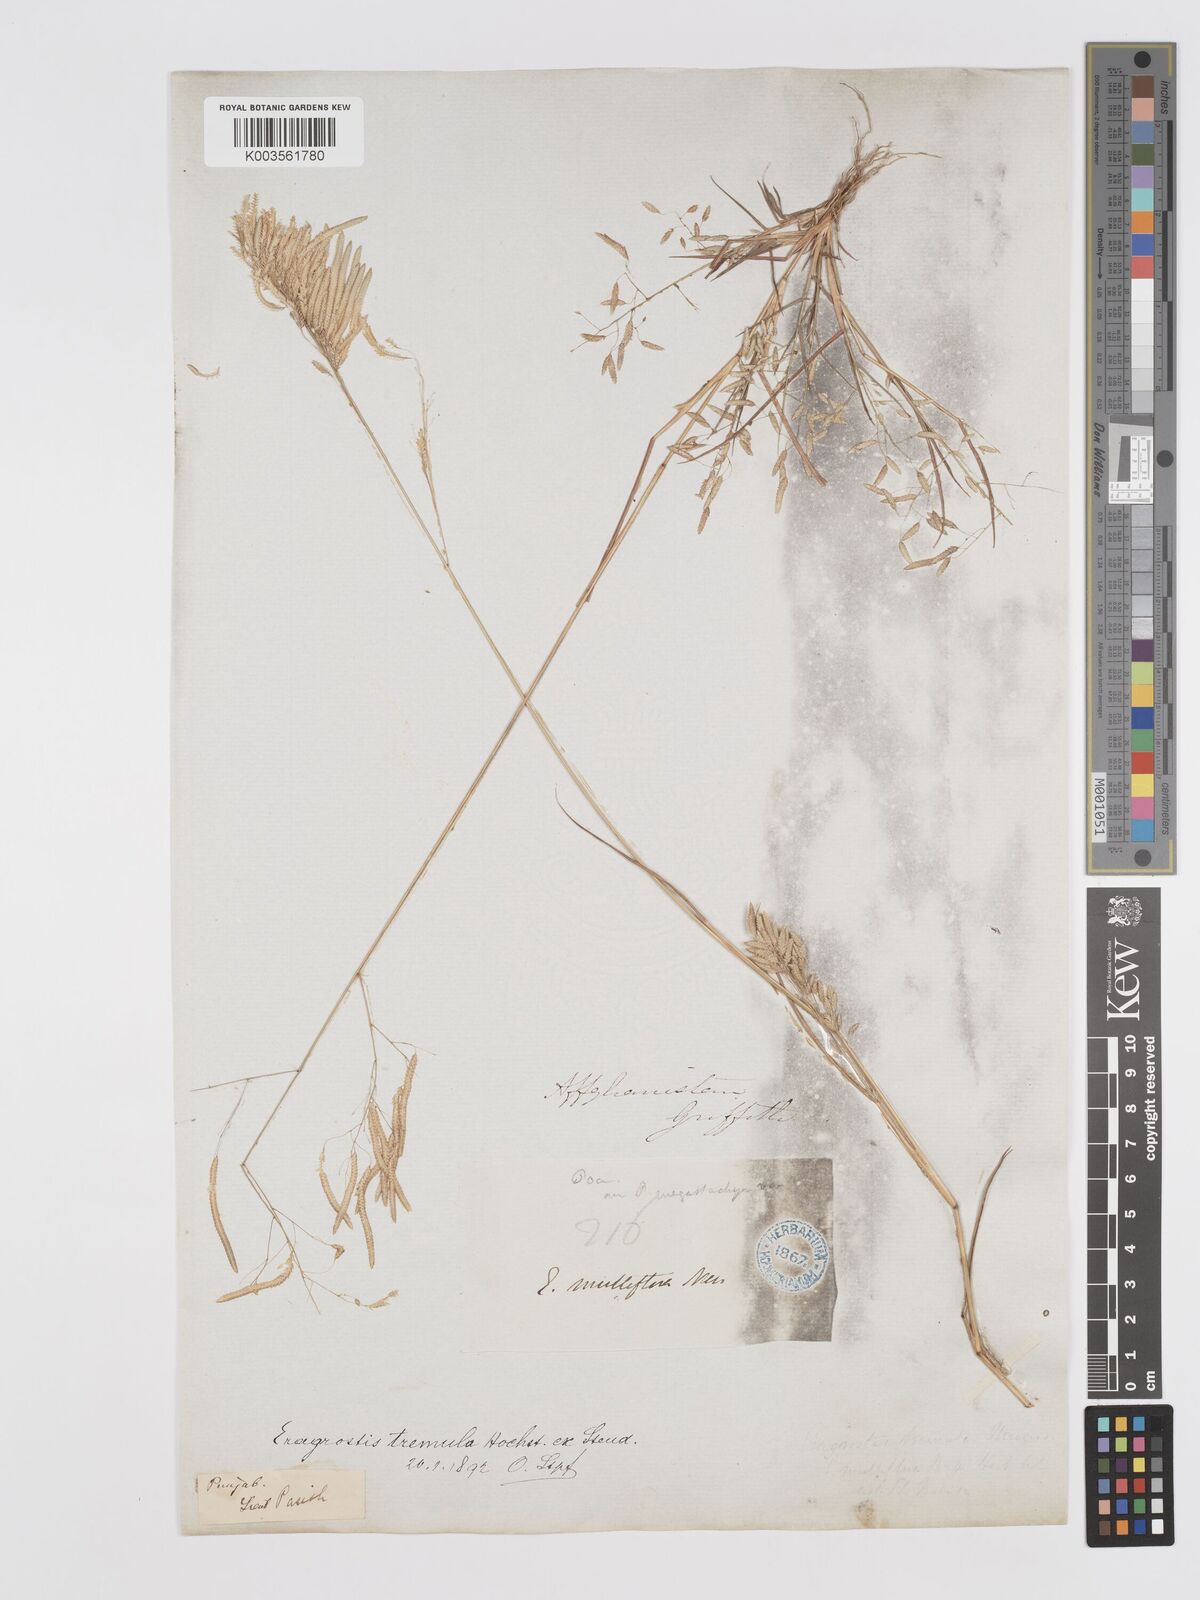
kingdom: Plantae
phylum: Tracheophyta
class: Liliopsida
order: Poales
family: Poaceae
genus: Eragrostis
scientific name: Eragrostis tremula
